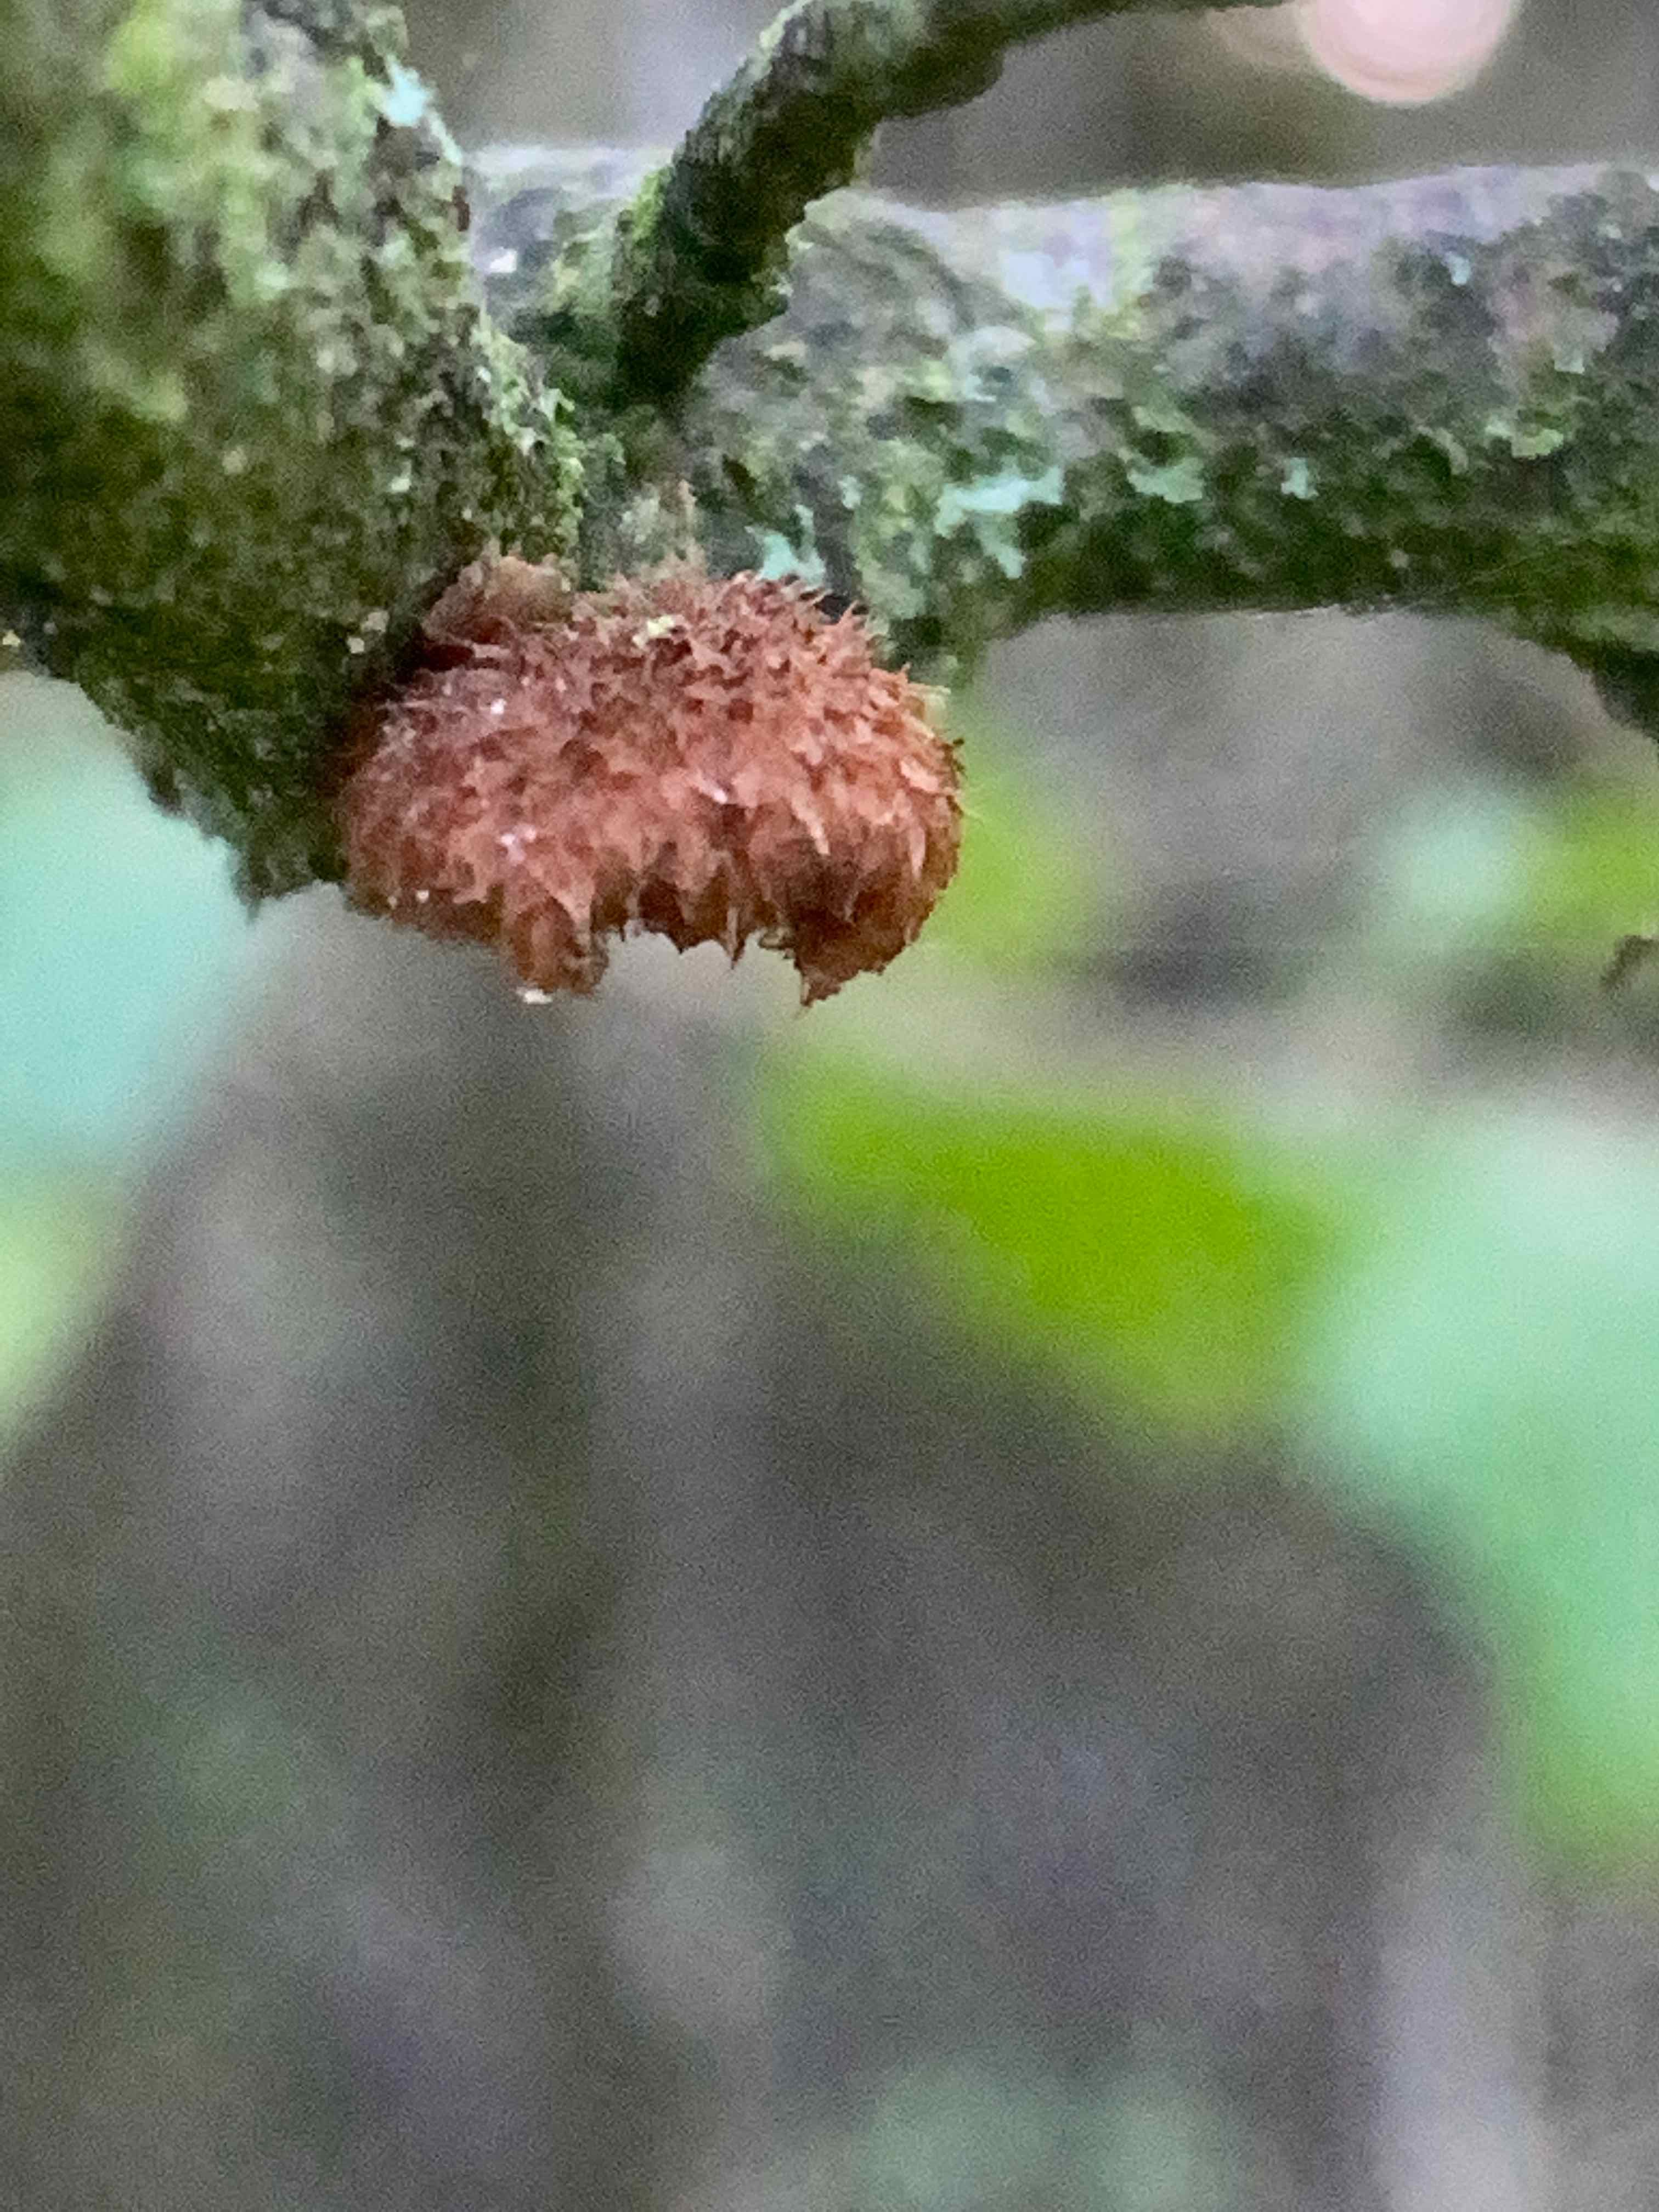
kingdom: Fungi
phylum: Basidiomycota
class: Agaricomycetes
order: Agaricales
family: Tubariaceae
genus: Phaeomarasmius
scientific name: Phaeomarasmius erinaceus
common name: spidsskælhat
